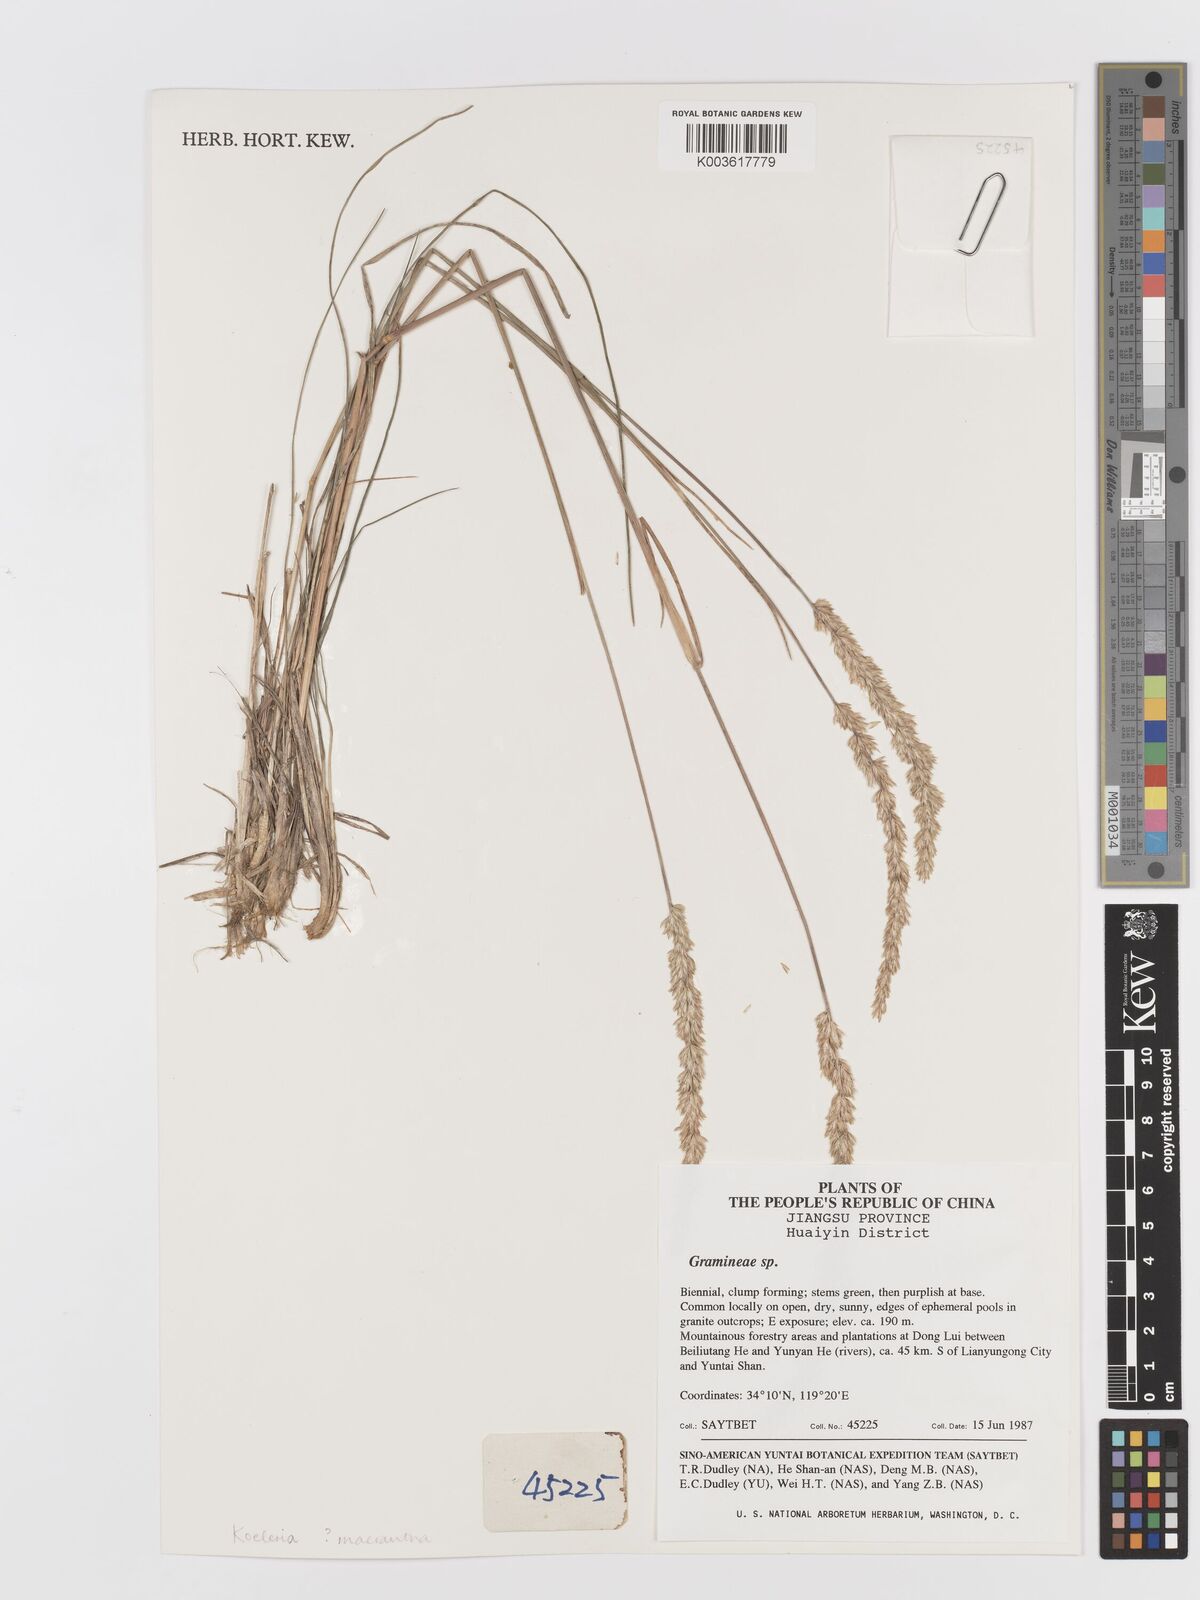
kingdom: Plantae
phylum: Tracheophyta
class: Liliopsida
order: Poales
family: Poaceae
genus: Koeleria
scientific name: Koeleria macrantha
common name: Crested hair-grass
